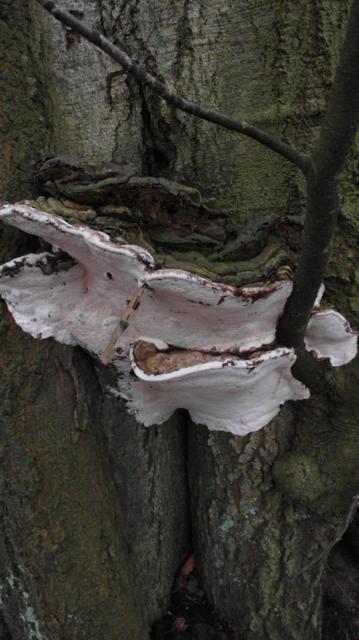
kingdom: Fungi
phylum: Basidiomycota
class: Agaricomycetes
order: Polyporales
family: Polyporaceae
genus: Ganoderma
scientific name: Ganoderma adspersum
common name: grov lakporesvamp
